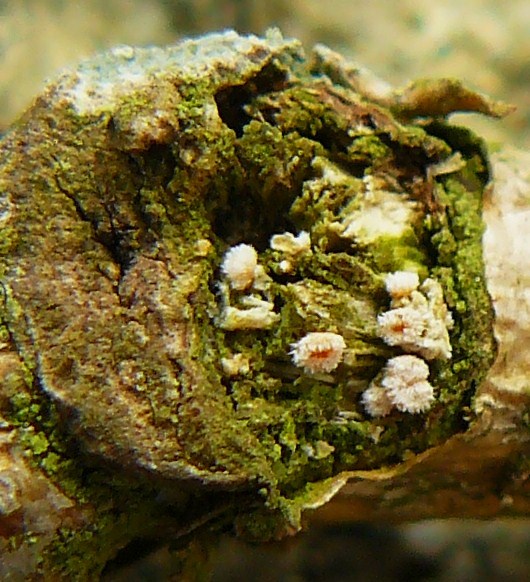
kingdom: Fungi
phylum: Ascomycota
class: Leotiomycetes
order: Helotiales
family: Lachnaceae
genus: Capitotricha
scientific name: Capitotricha bicolor
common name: prægtig frynseskive
